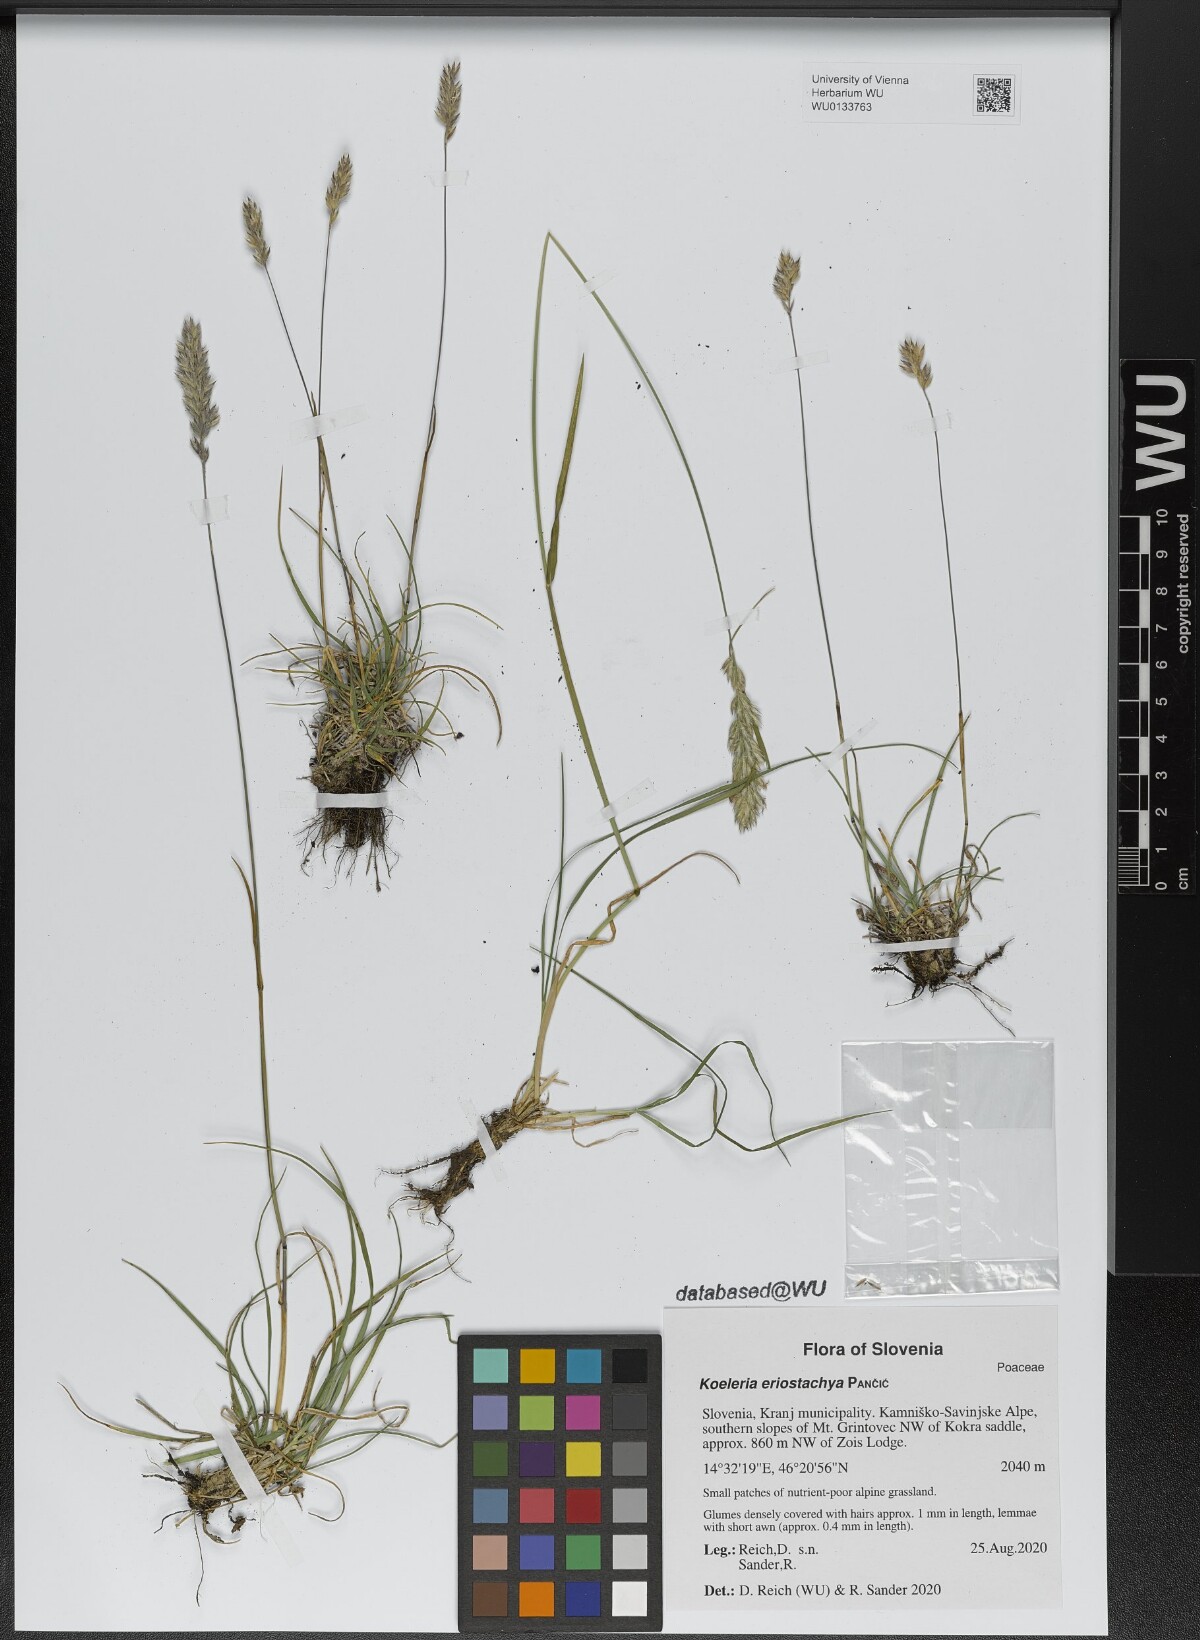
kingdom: Plantae
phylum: Tracheophyta
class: Liliopsida
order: Poales
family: Poaceae
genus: Koeleria
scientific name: Koeleria eriostachya
